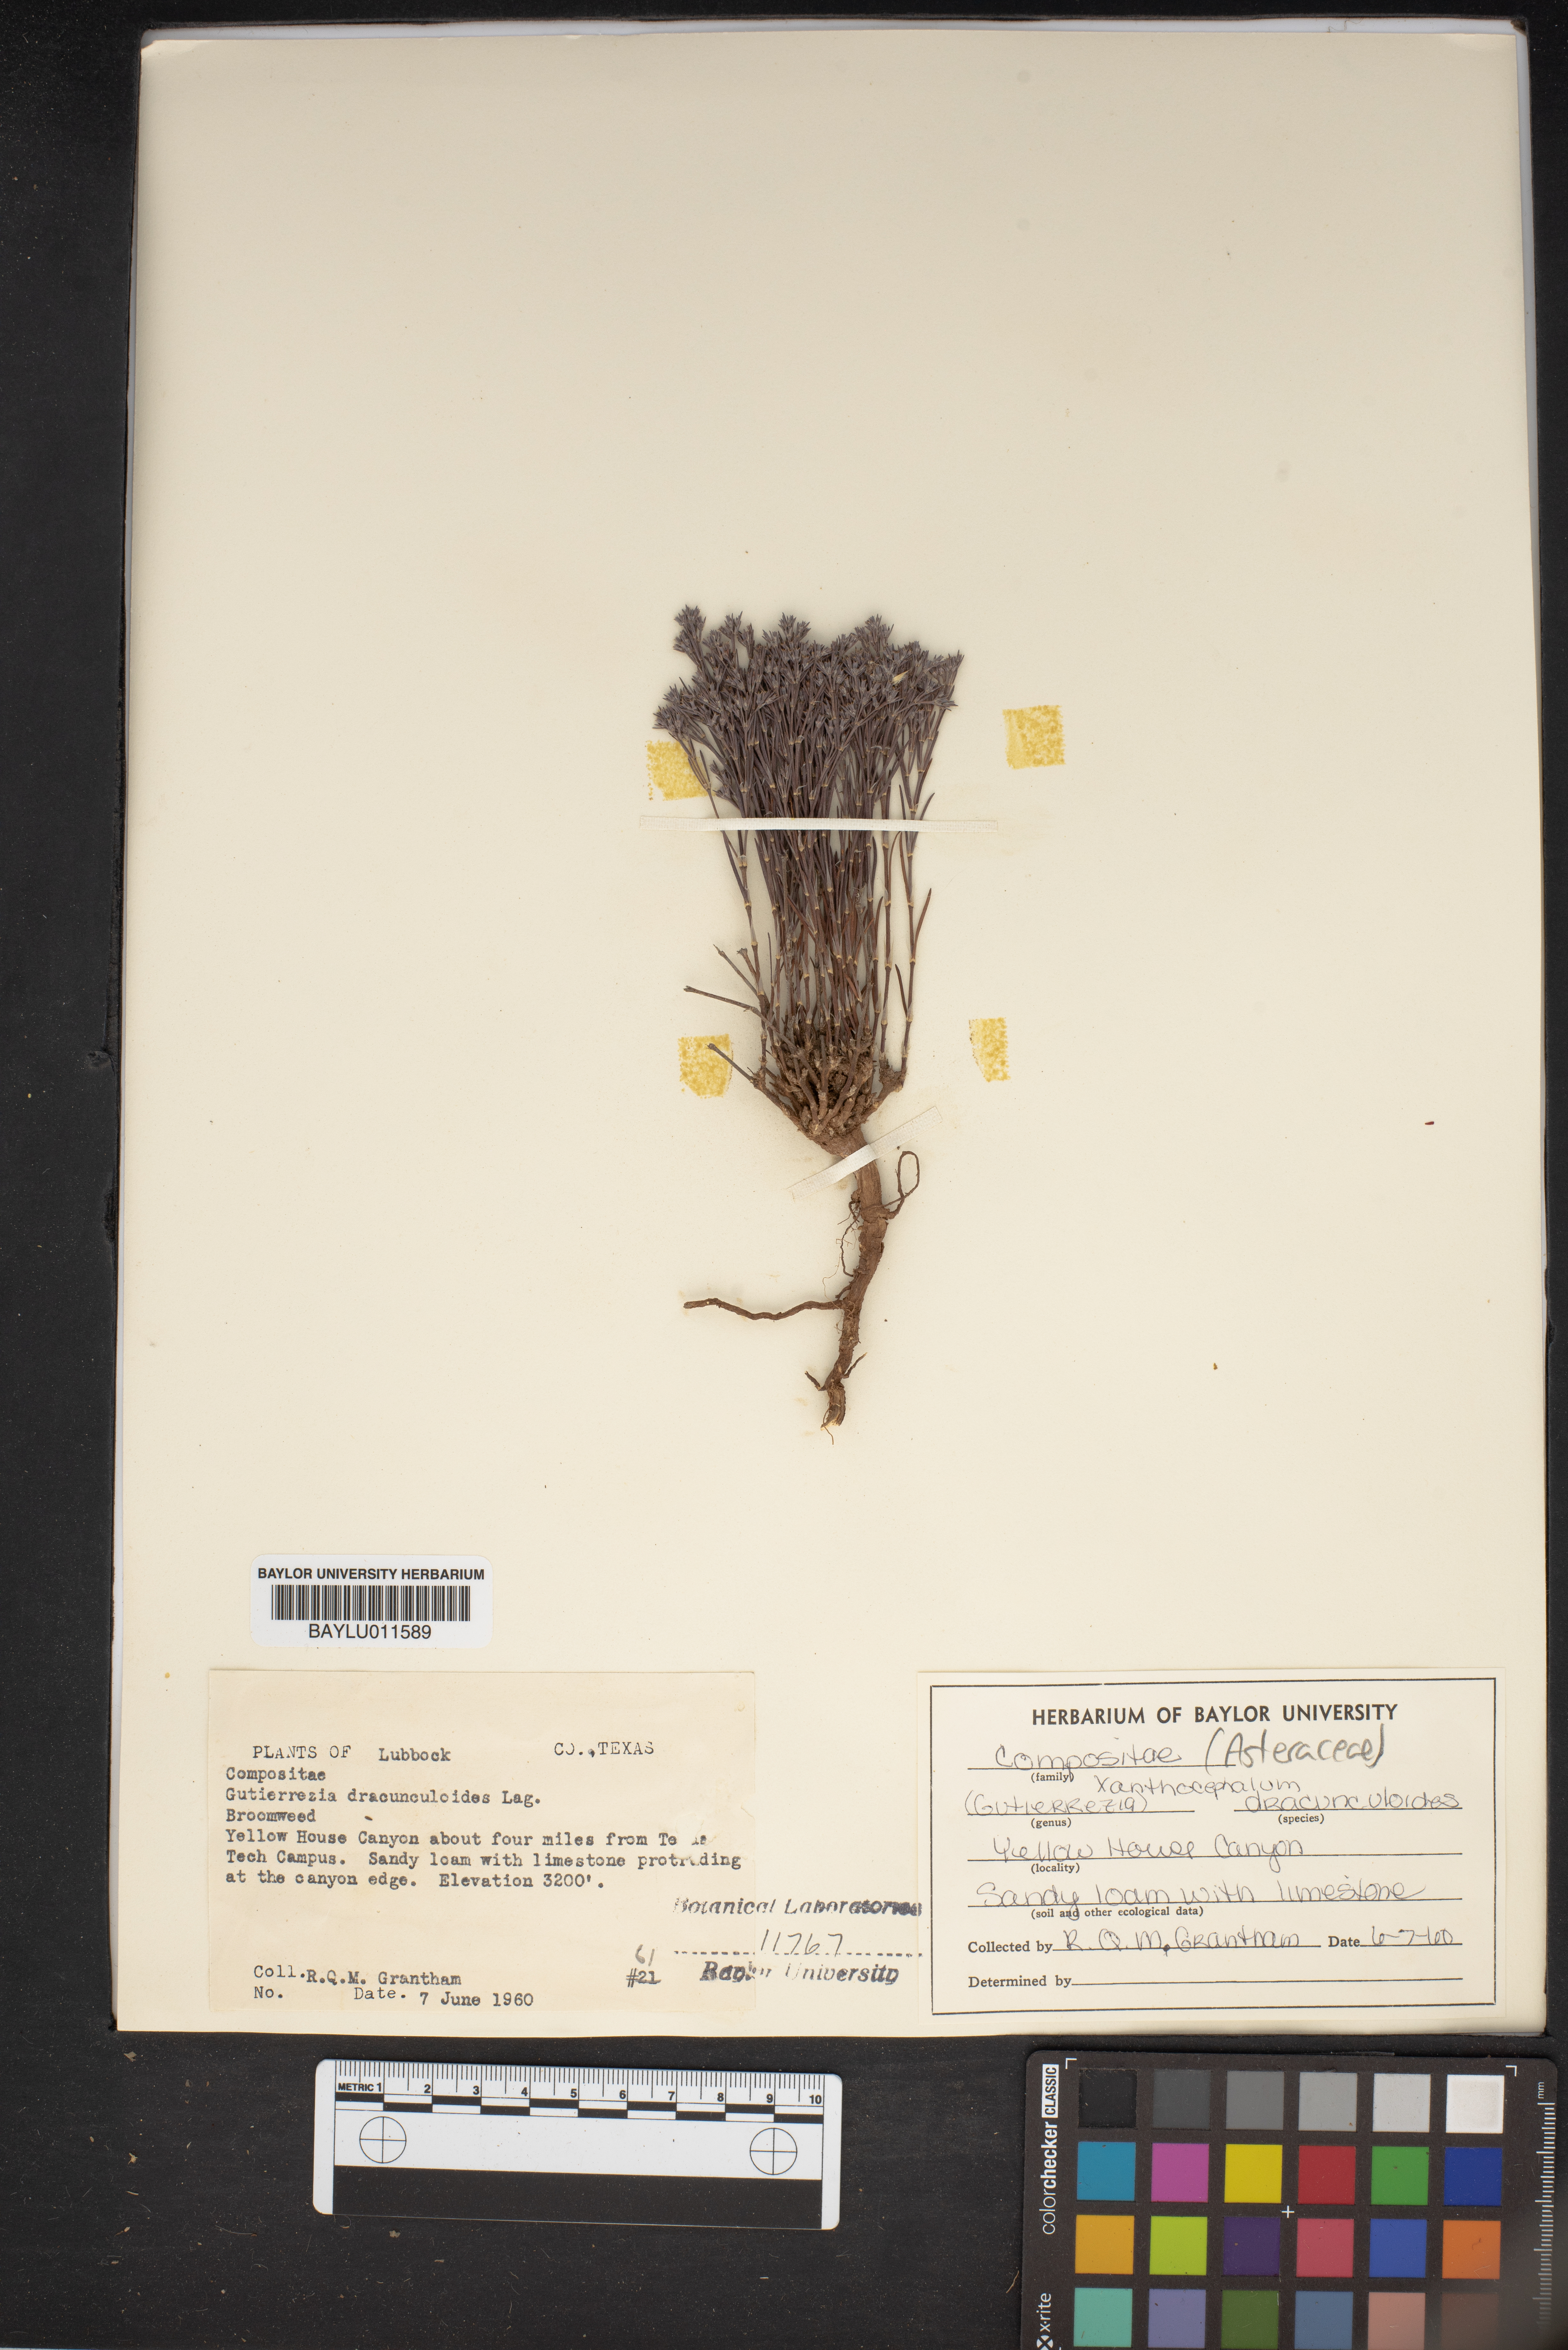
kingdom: Plantae
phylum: Tracheophyta
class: Magnoliopsida
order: Asterales
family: Asteraceae
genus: Amphiachyris
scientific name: Amphiachyris dracunculoides
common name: Broomweed
